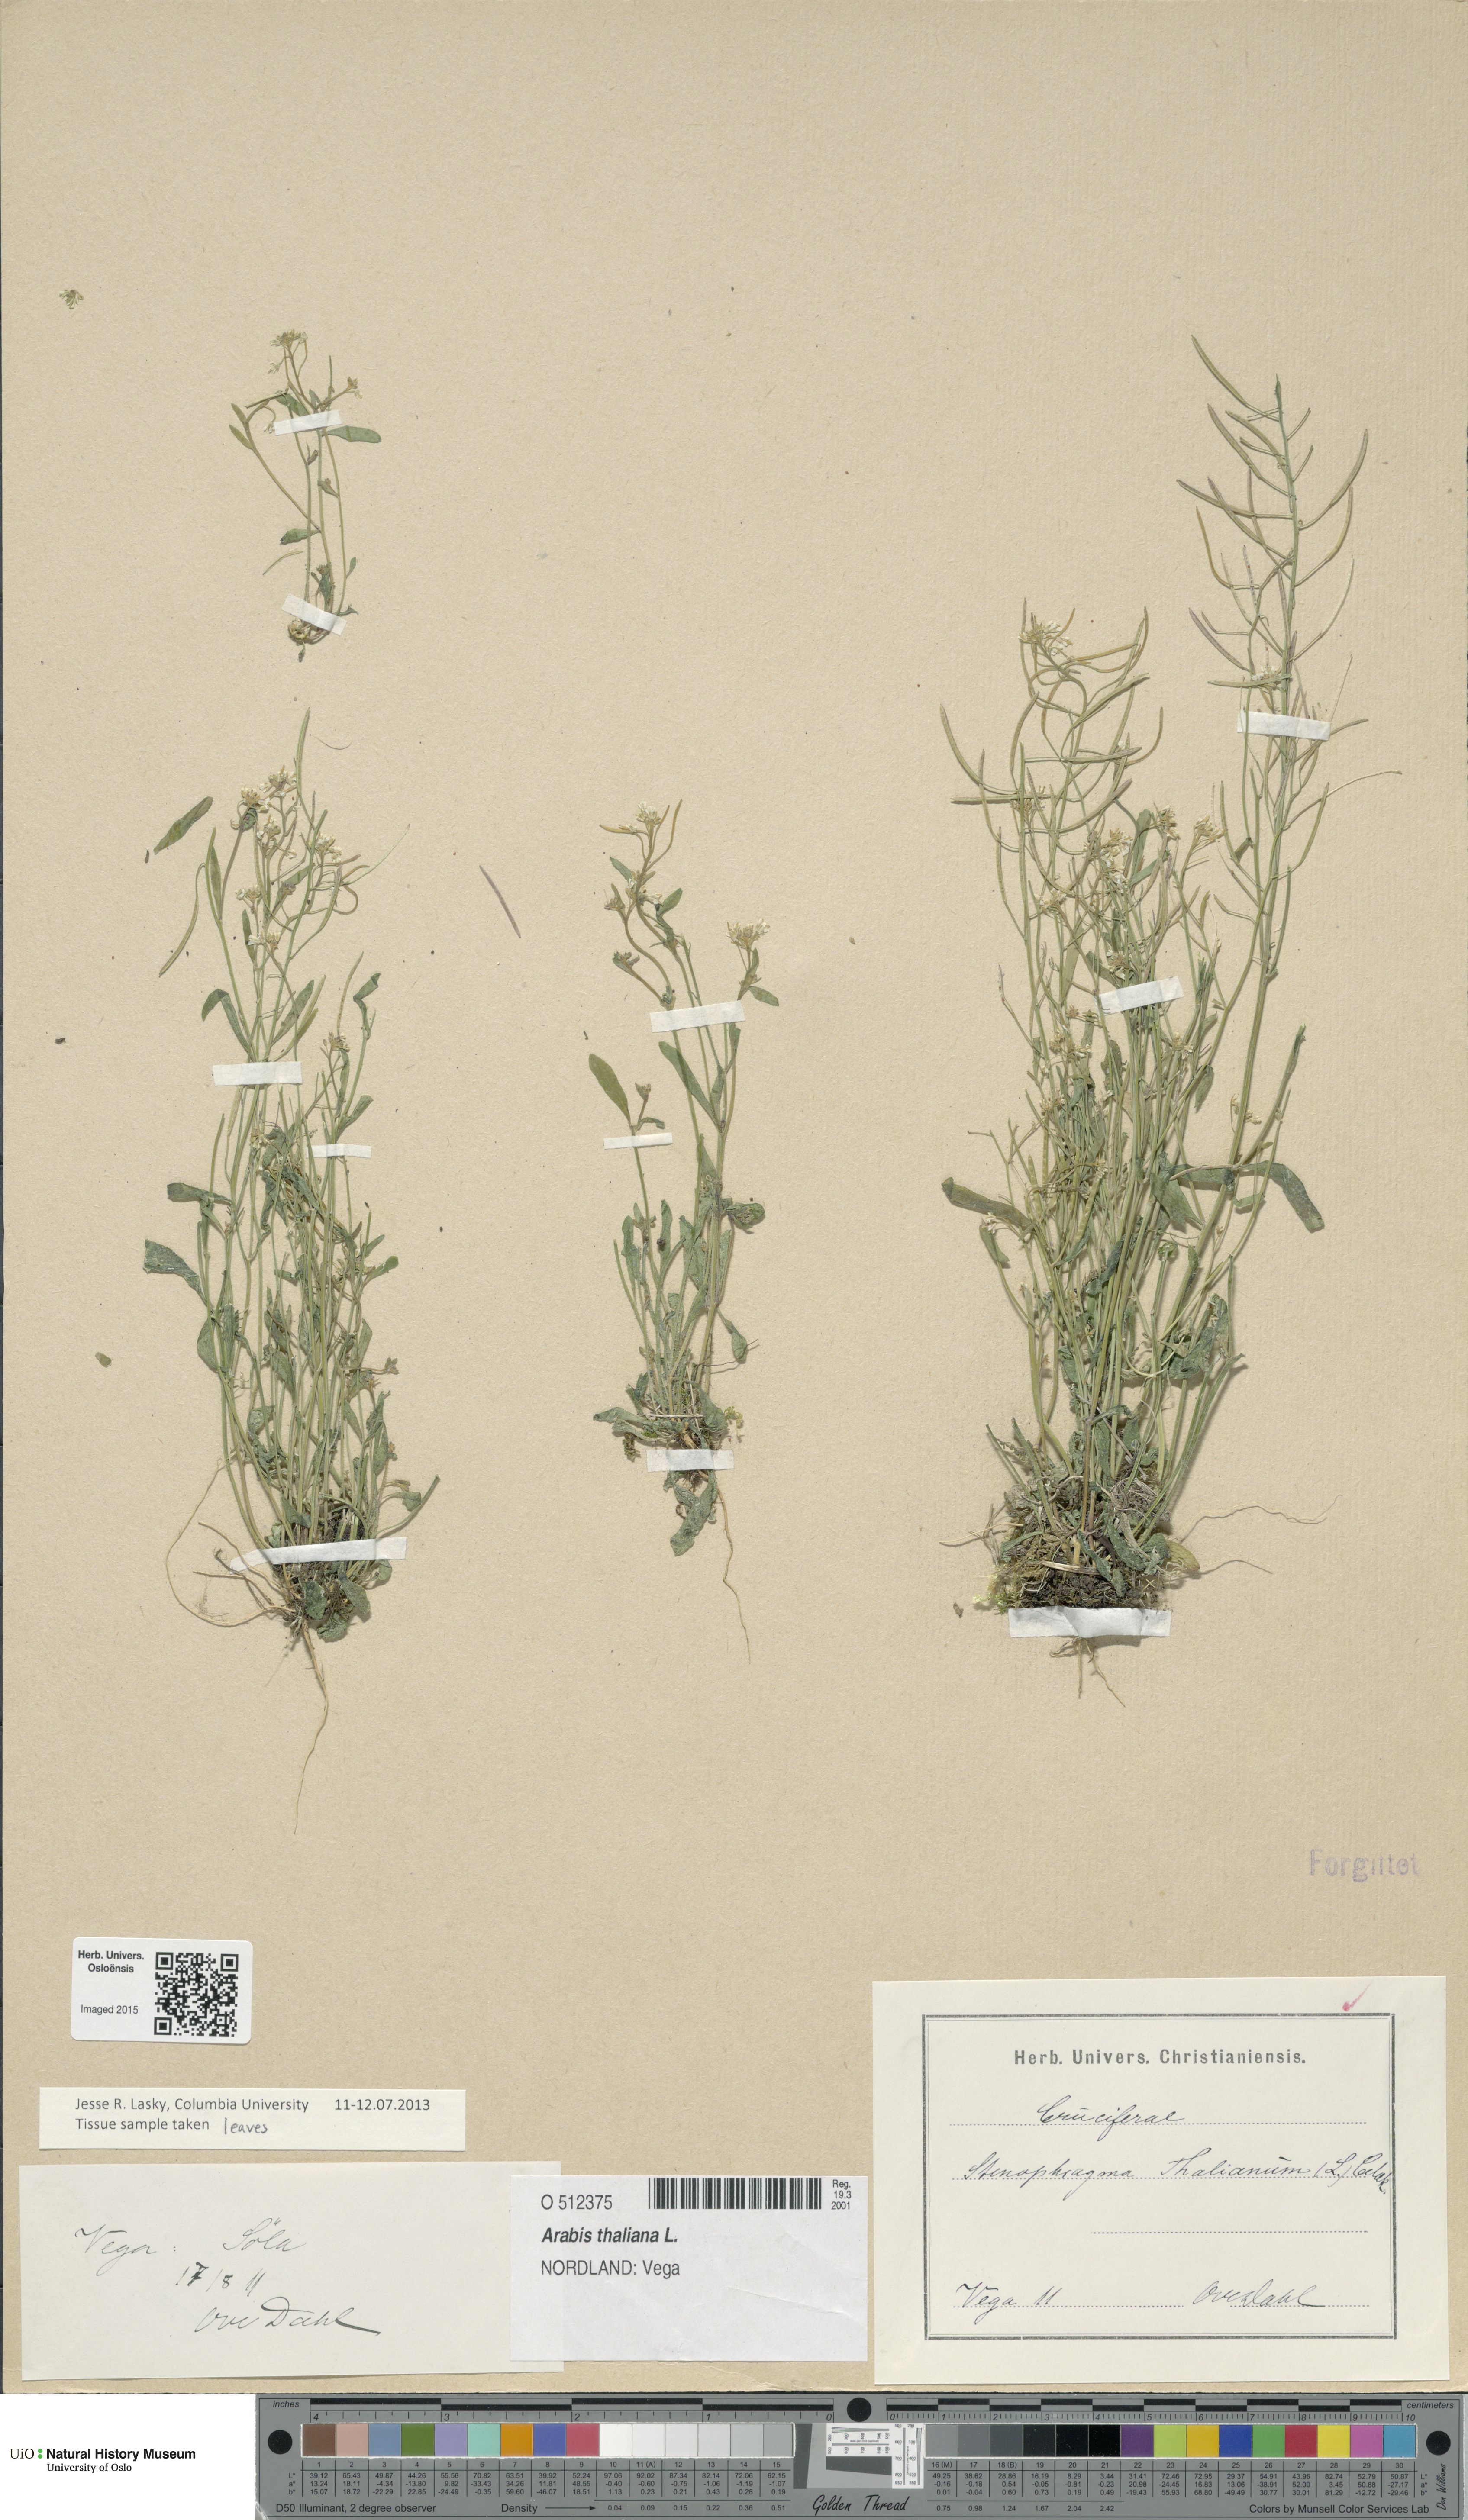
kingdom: Plantae
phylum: Tracheophyta
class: Magnoliopsida
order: Brassicales
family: Brassicaceae
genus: Arabidopsis
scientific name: Arabidopsis thaliana
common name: Thale cress
